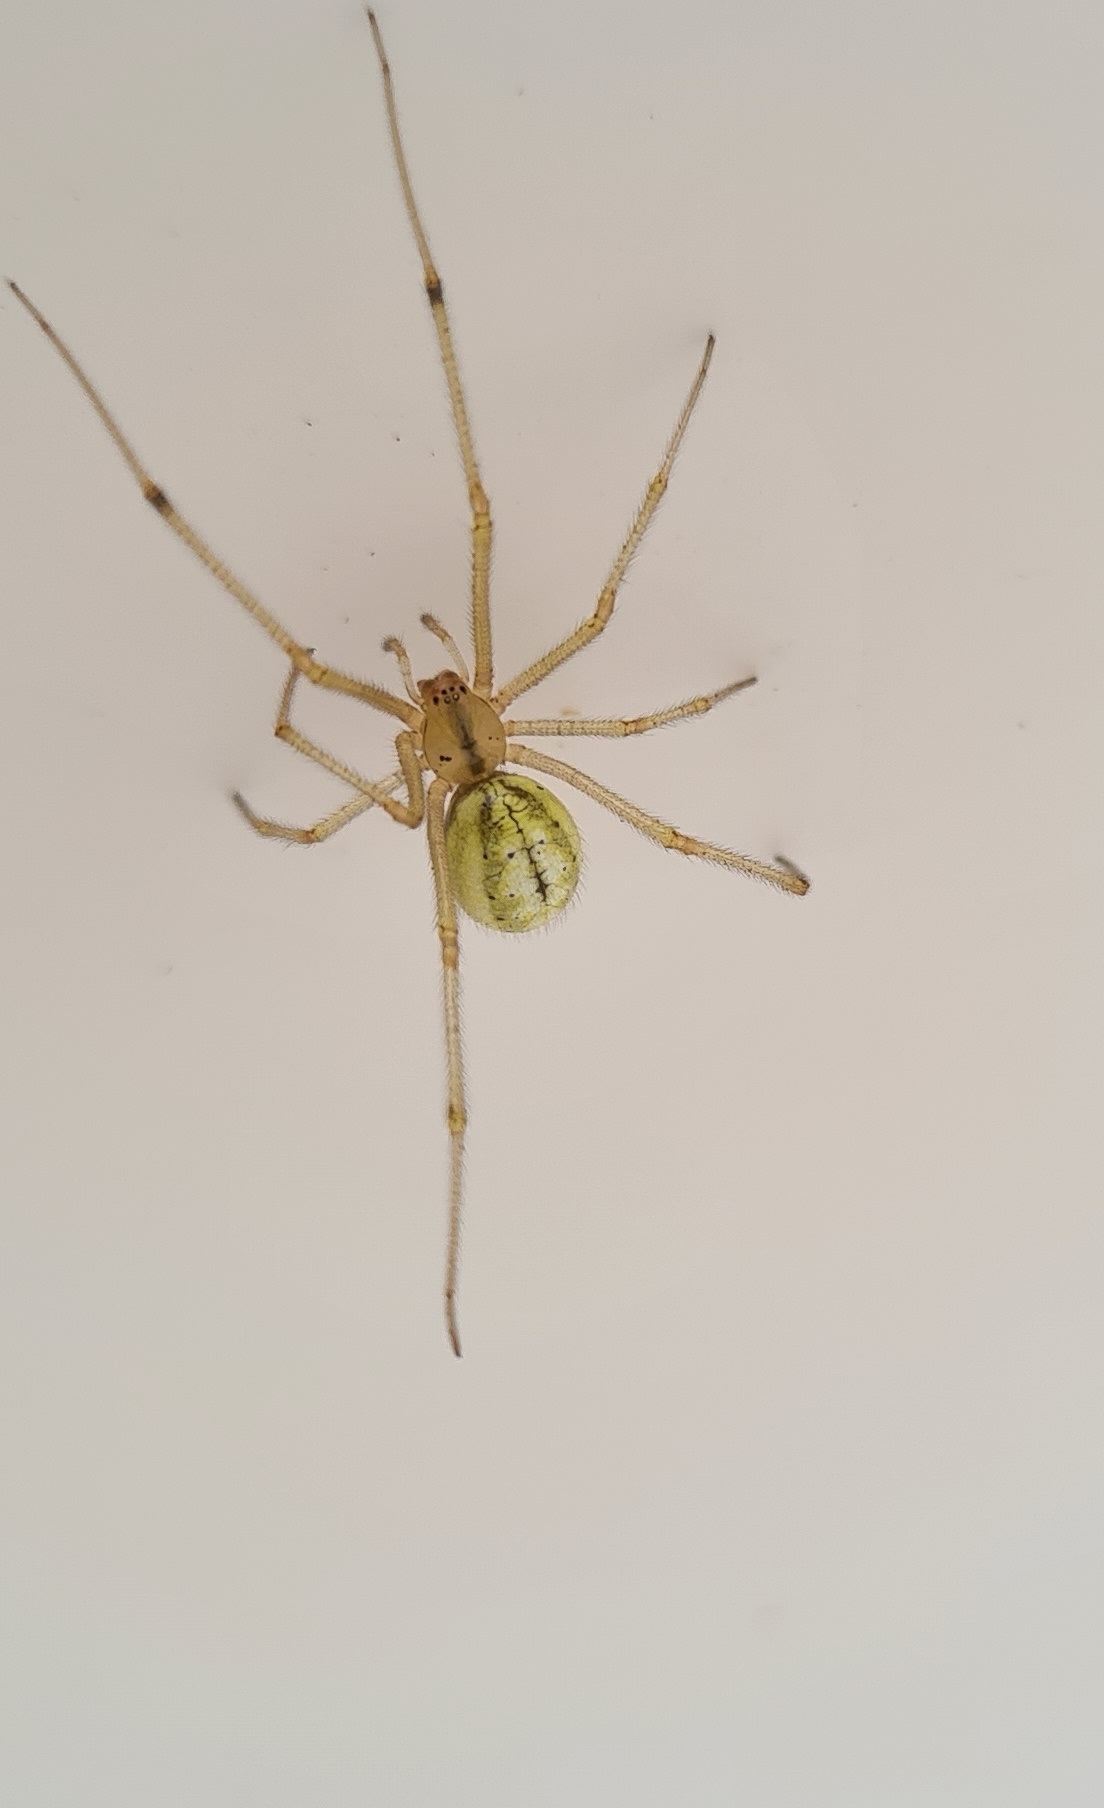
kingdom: Animalia
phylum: Arthropoda
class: Arachnida
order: Araneae
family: Theridiidae
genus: Enoplognatha
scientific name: Enoplognatha
